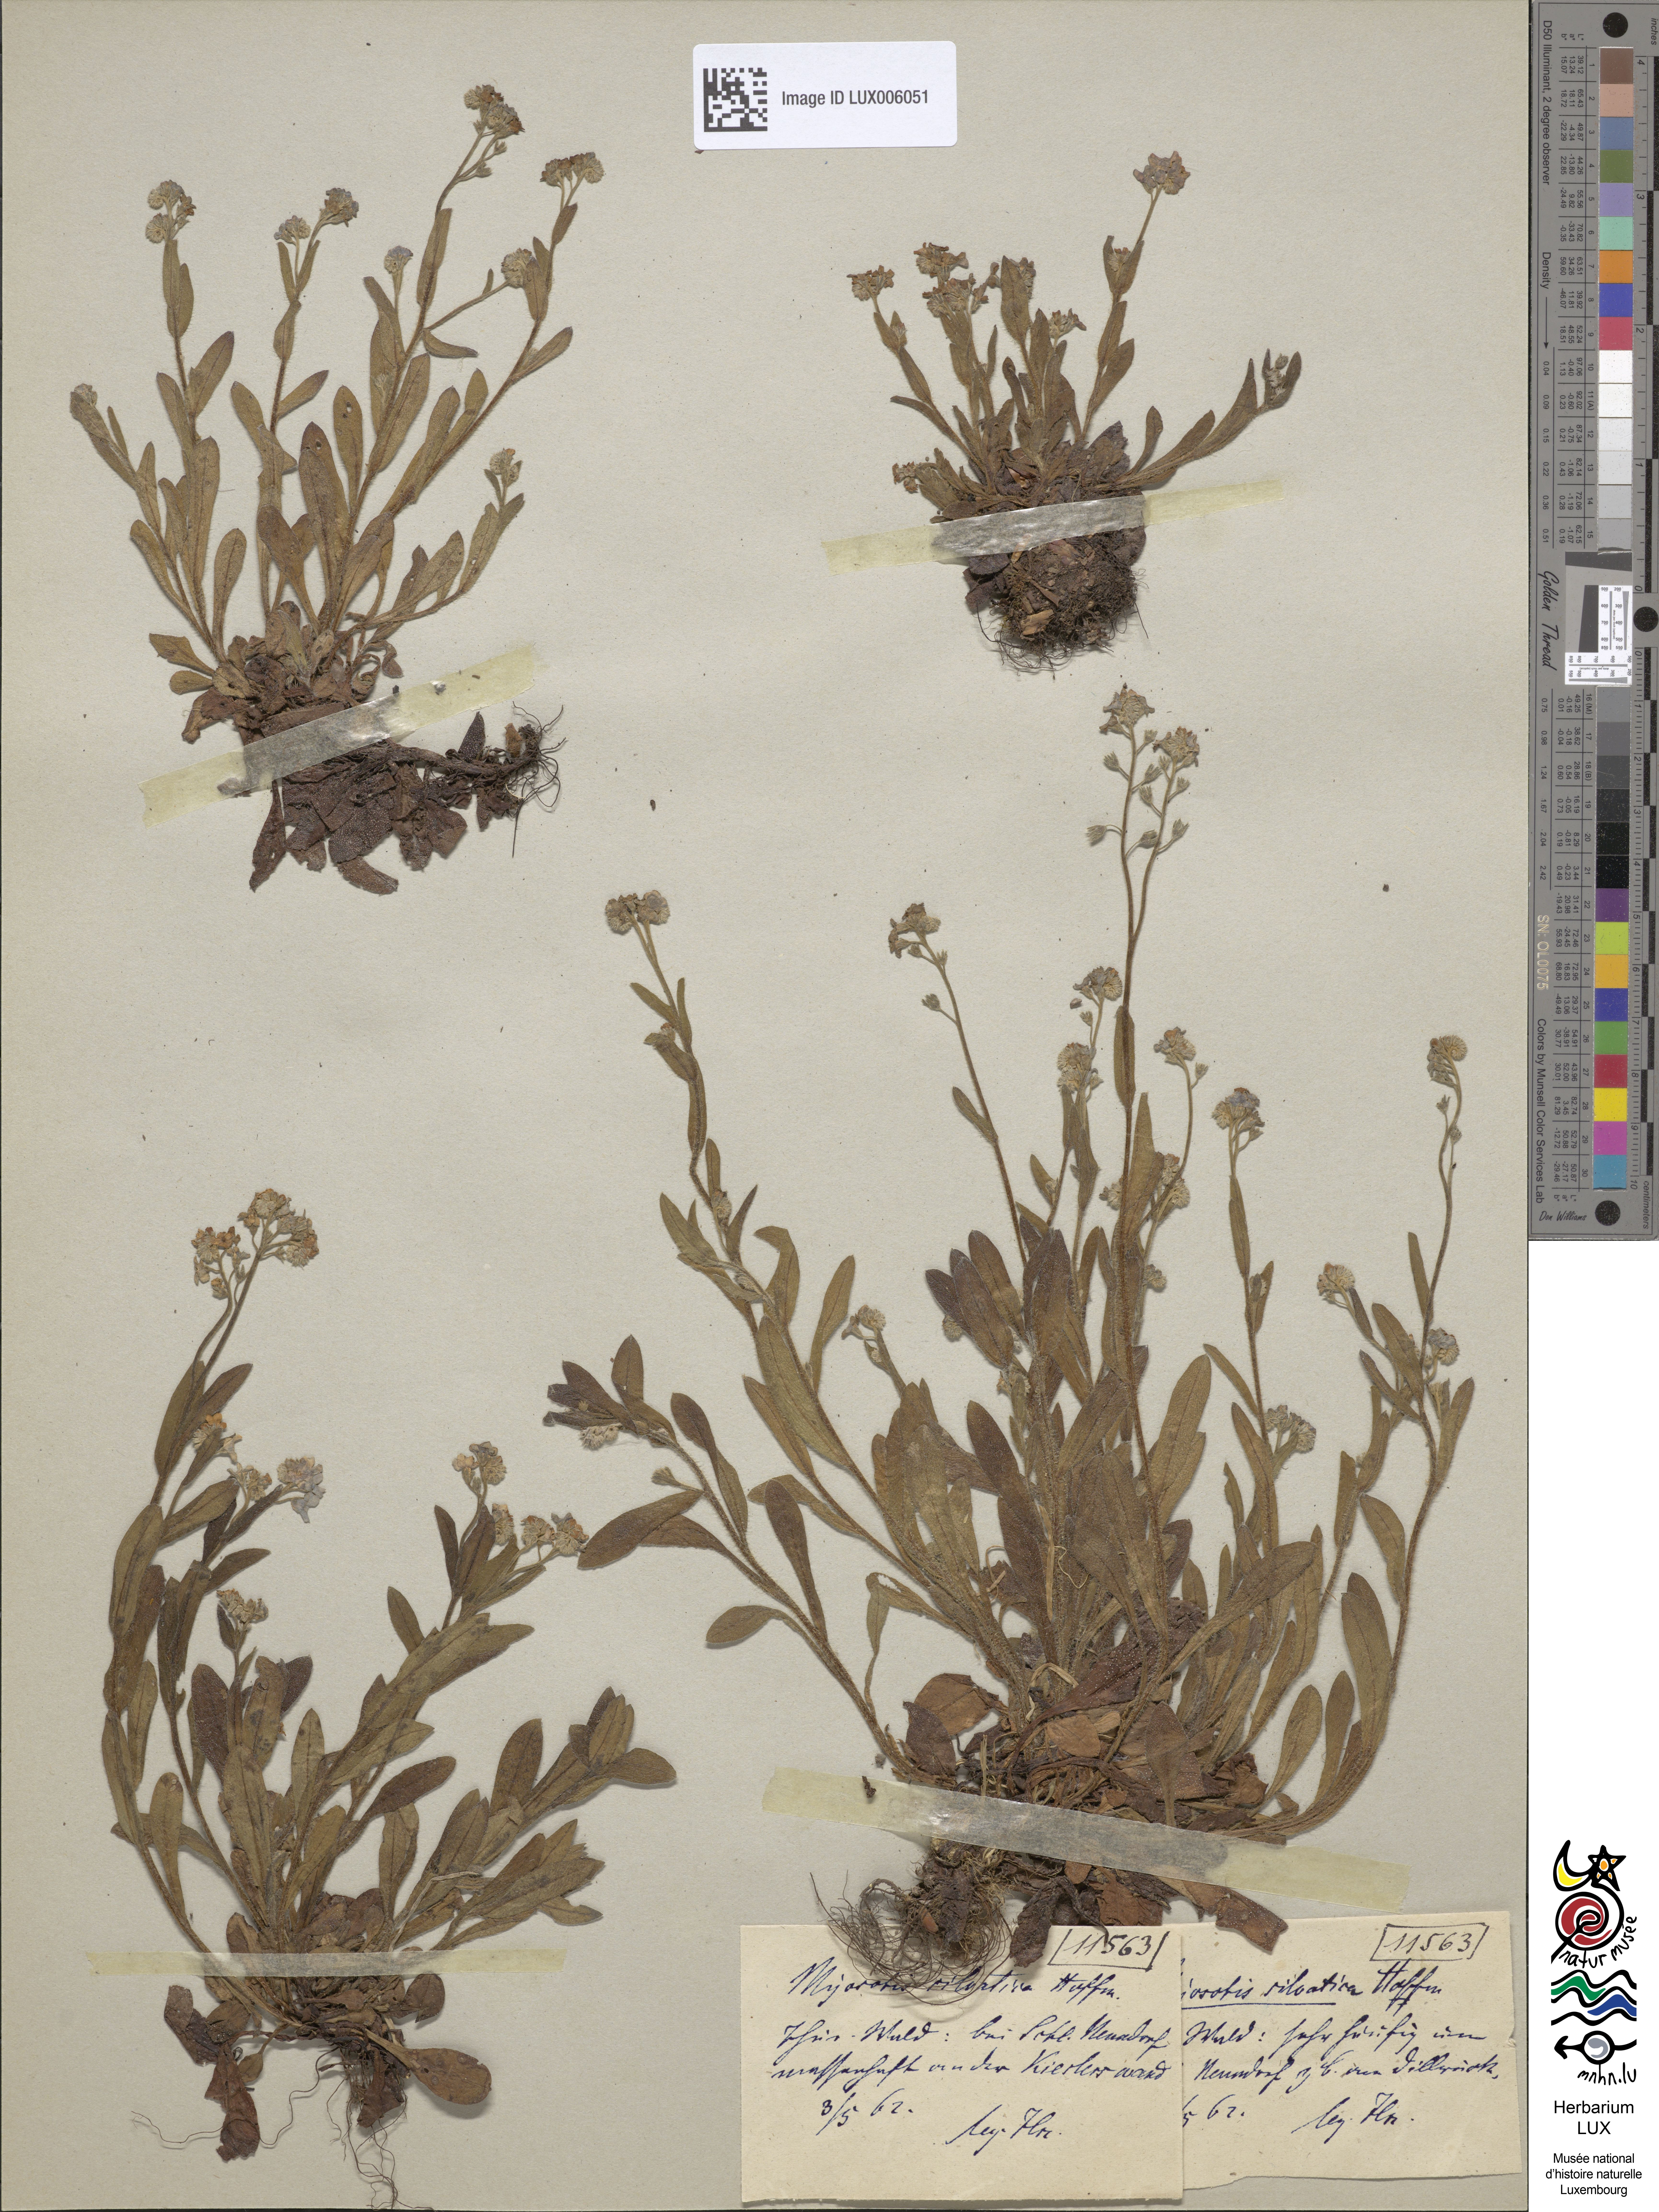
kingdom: Plantae
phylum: Tracheophyta
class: Magnoliopsida
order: Boraginales
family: Boraginaceae
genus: Myosotis
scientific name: Myosotis sylvatica
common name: Wood forget-me-not
